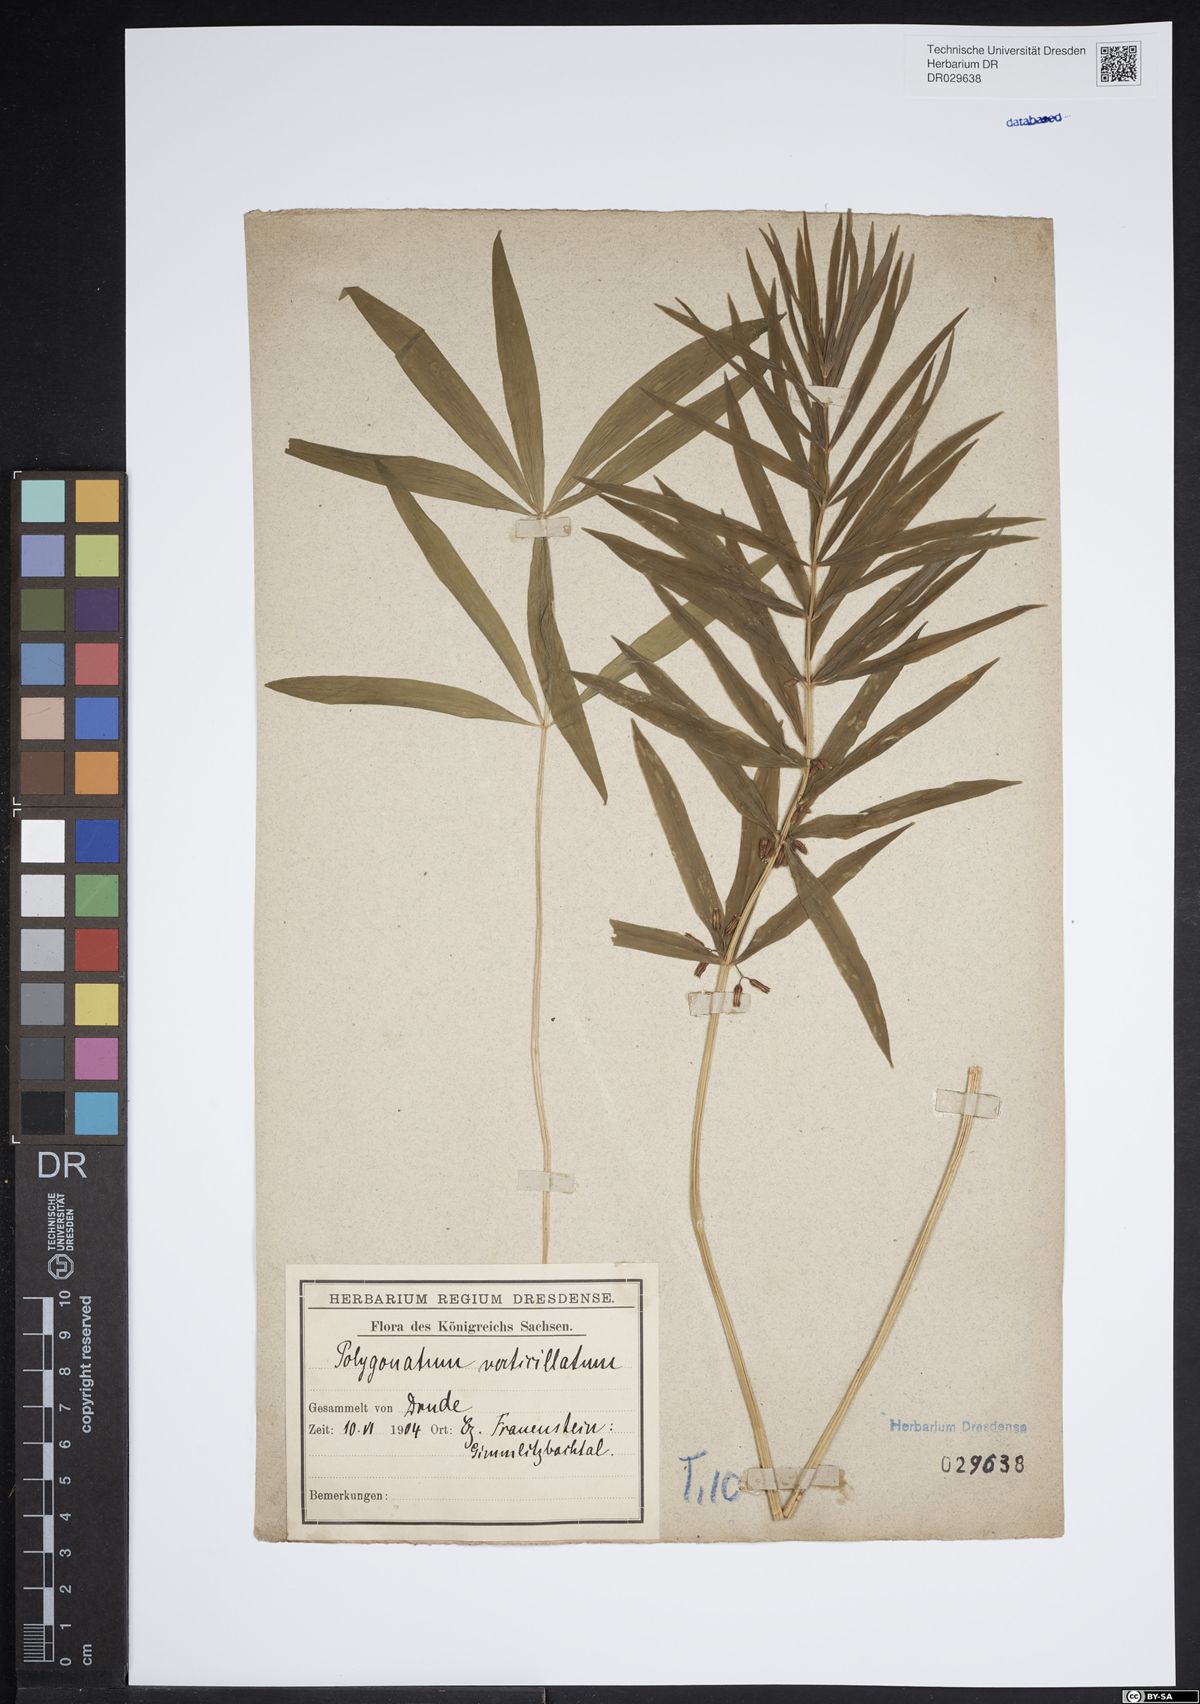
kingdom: Plantae
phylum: Tracheophyta
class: Liliopsida
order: Asparagales
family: Asparagaceae
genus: Polygonatum
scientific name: Polygonatum verticillatum
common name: Whorled solomon's-seal
